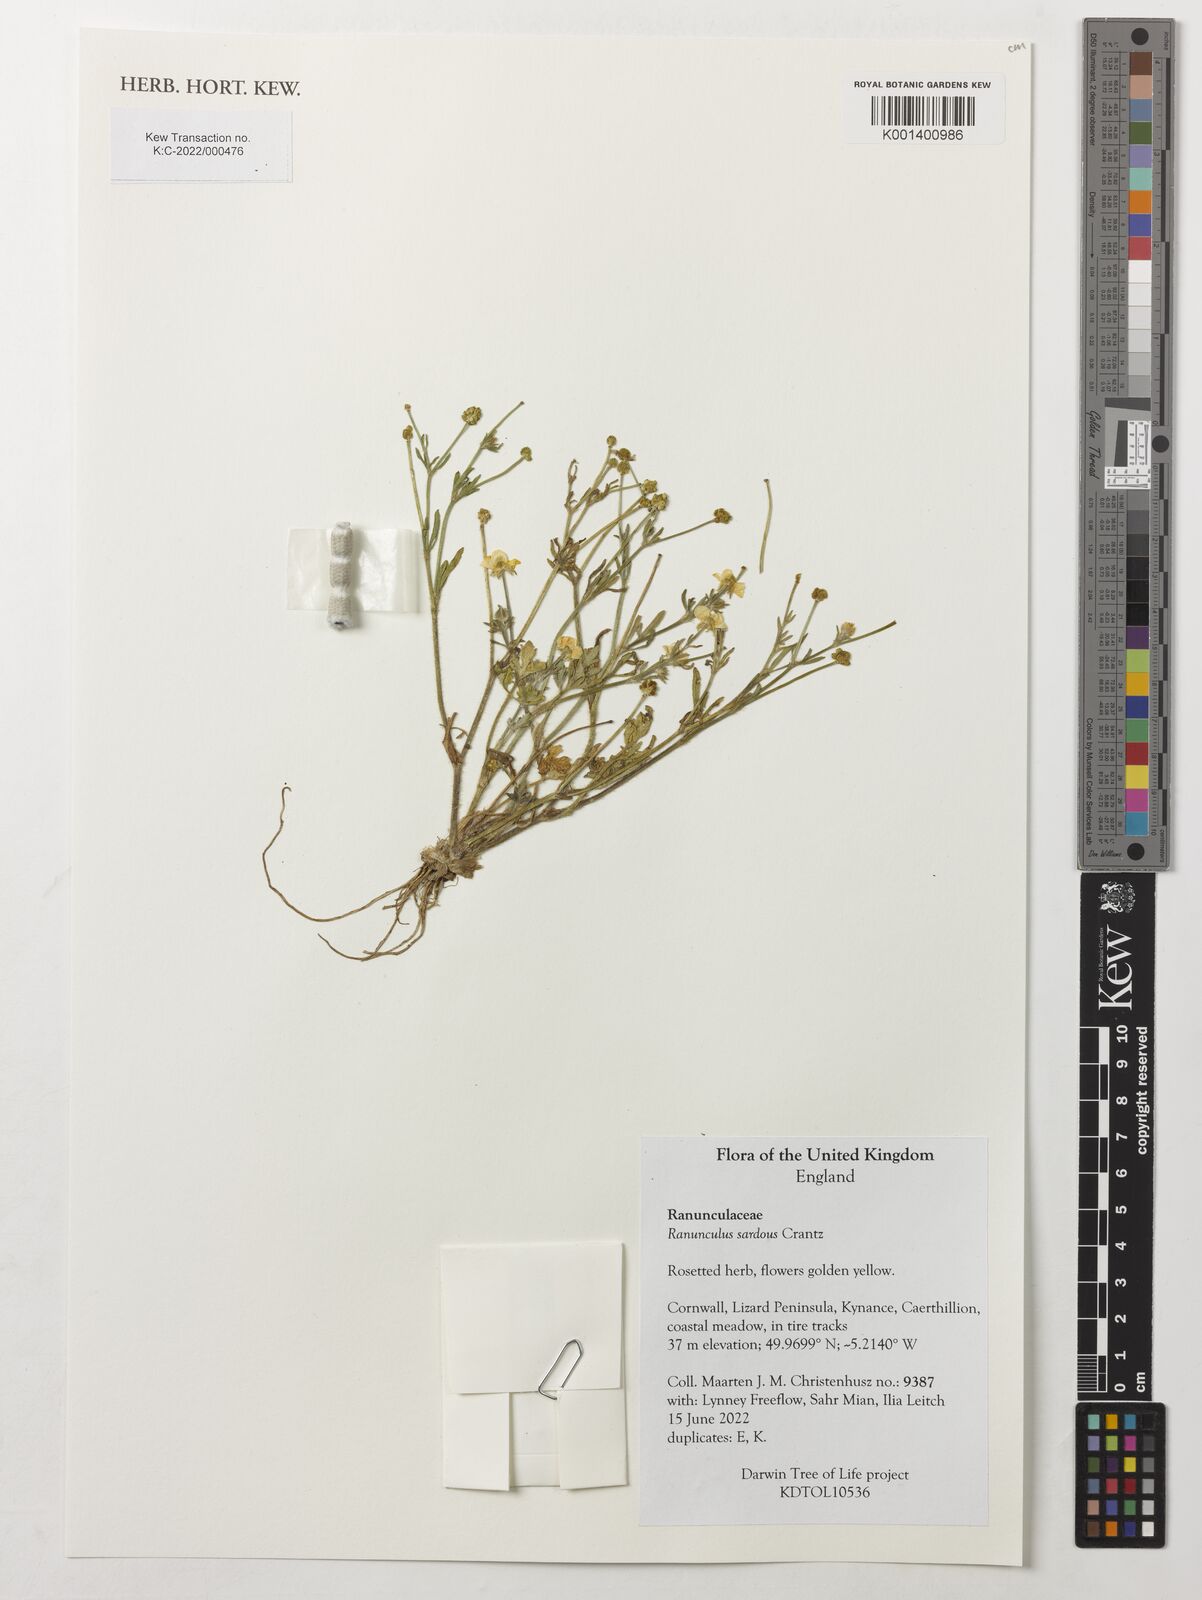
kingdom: Plantae
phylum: Tracheophyta
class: Magnoliopsida
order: Ranunculales
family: Ranunculaceae
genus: Ranunculus
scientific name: Ranunculus sardous
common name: Hairy buttercup
